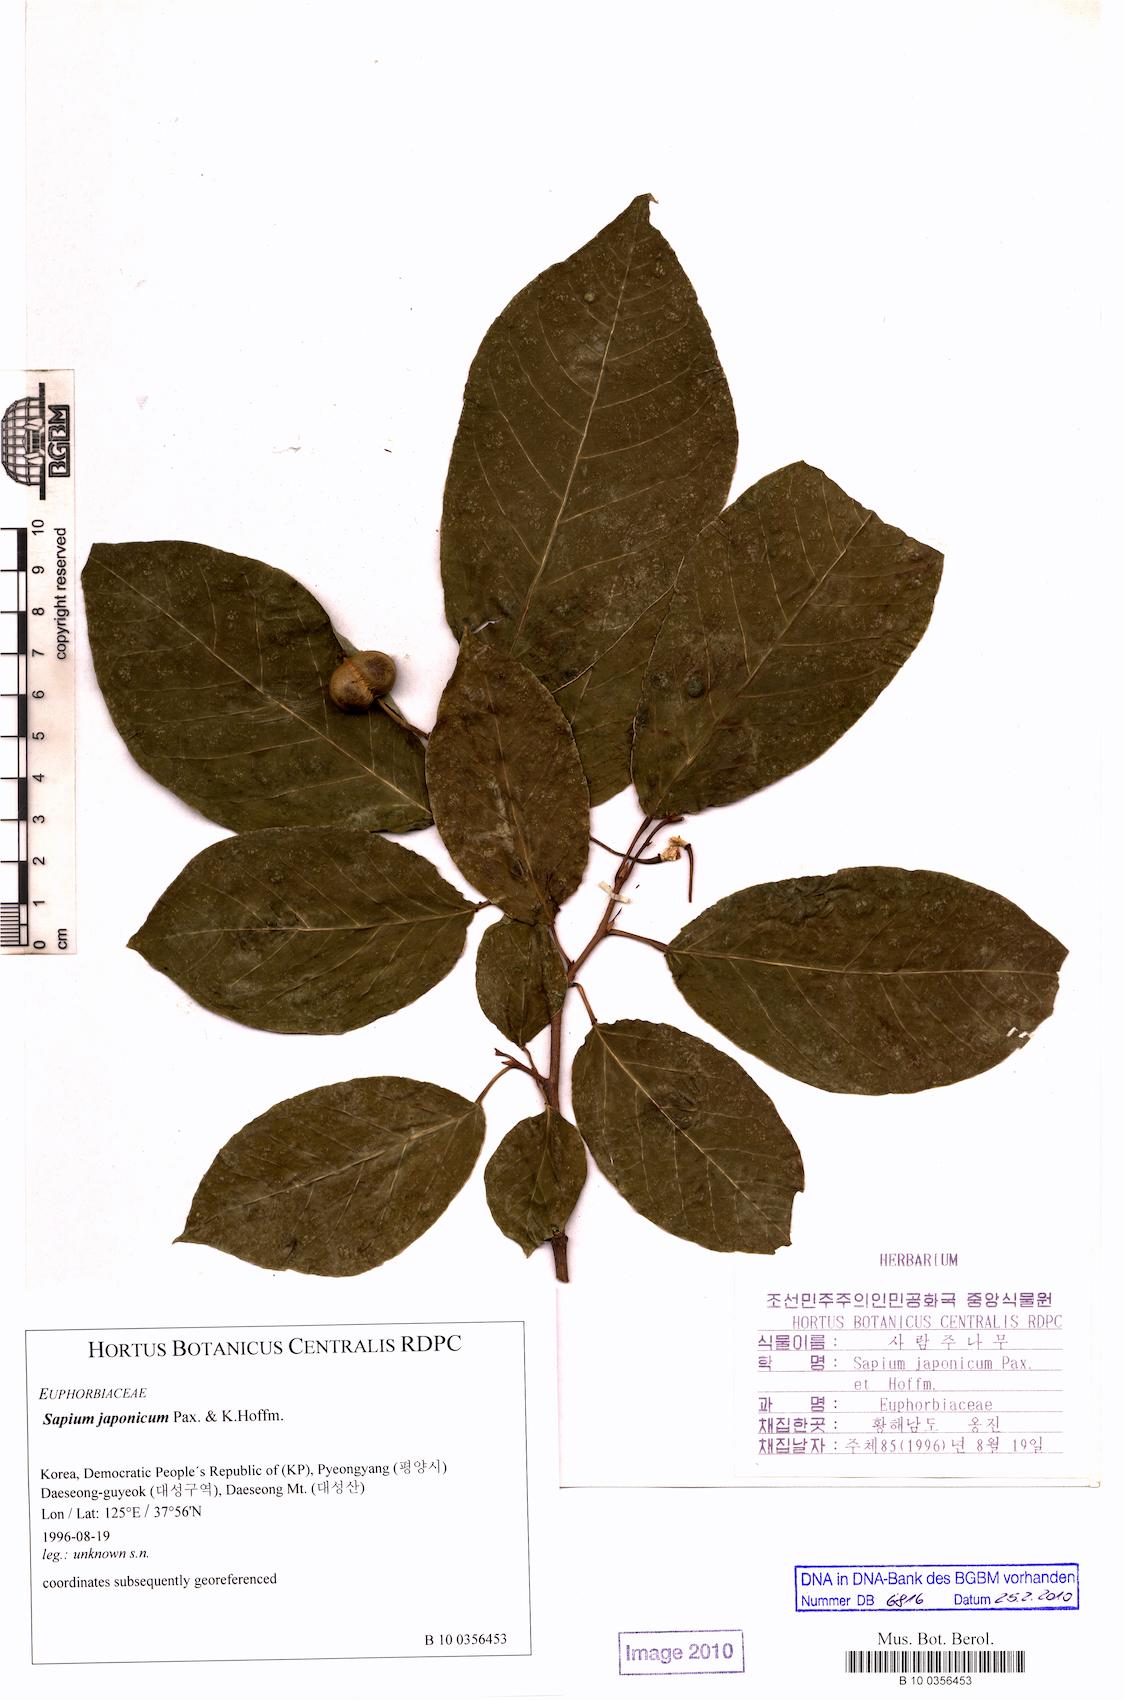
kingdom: Plantae
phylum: Tracheophyta
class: Magnoliopsida
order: Malpighiales
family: Euphorbiaceae
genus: Neoshirakia
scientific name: Neoshirakia japonica
